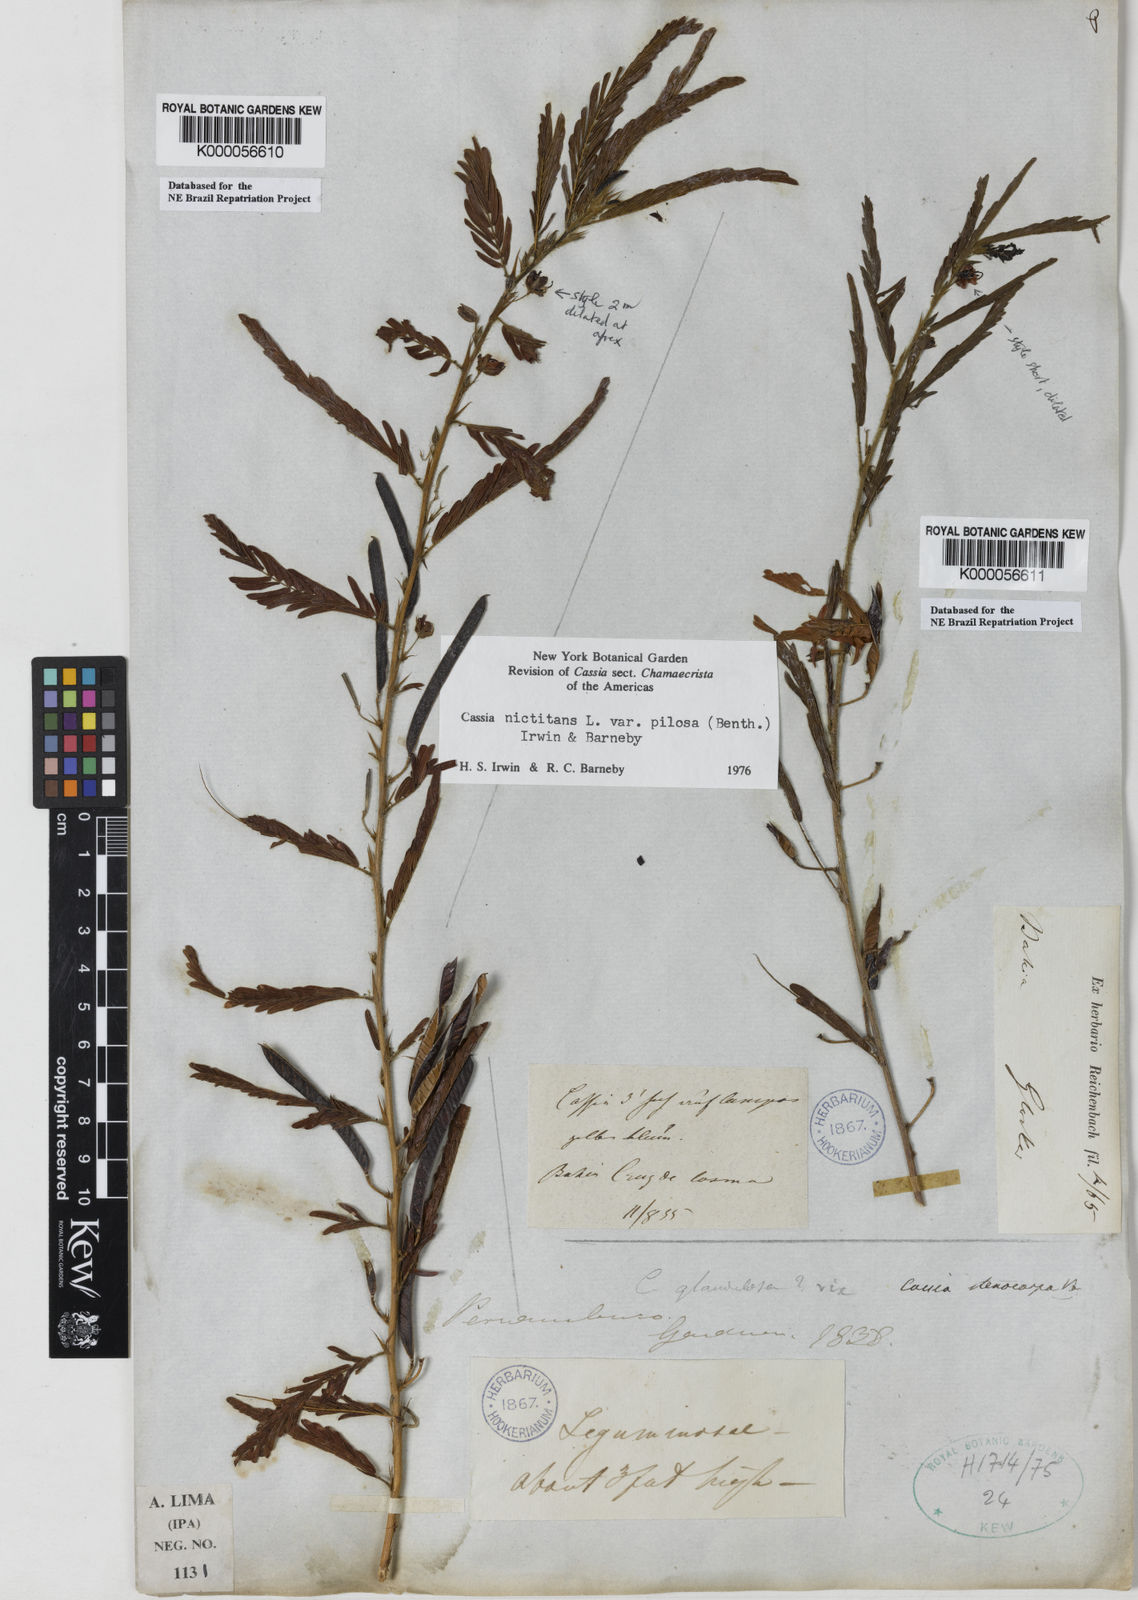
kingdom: Plantae
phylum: Tracheophyta
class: Magnoliopsida
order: Fabales
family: Fabaceae
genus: Chamaecrista
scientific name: Chamaecrista nictitans
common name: Sensitive cassia
